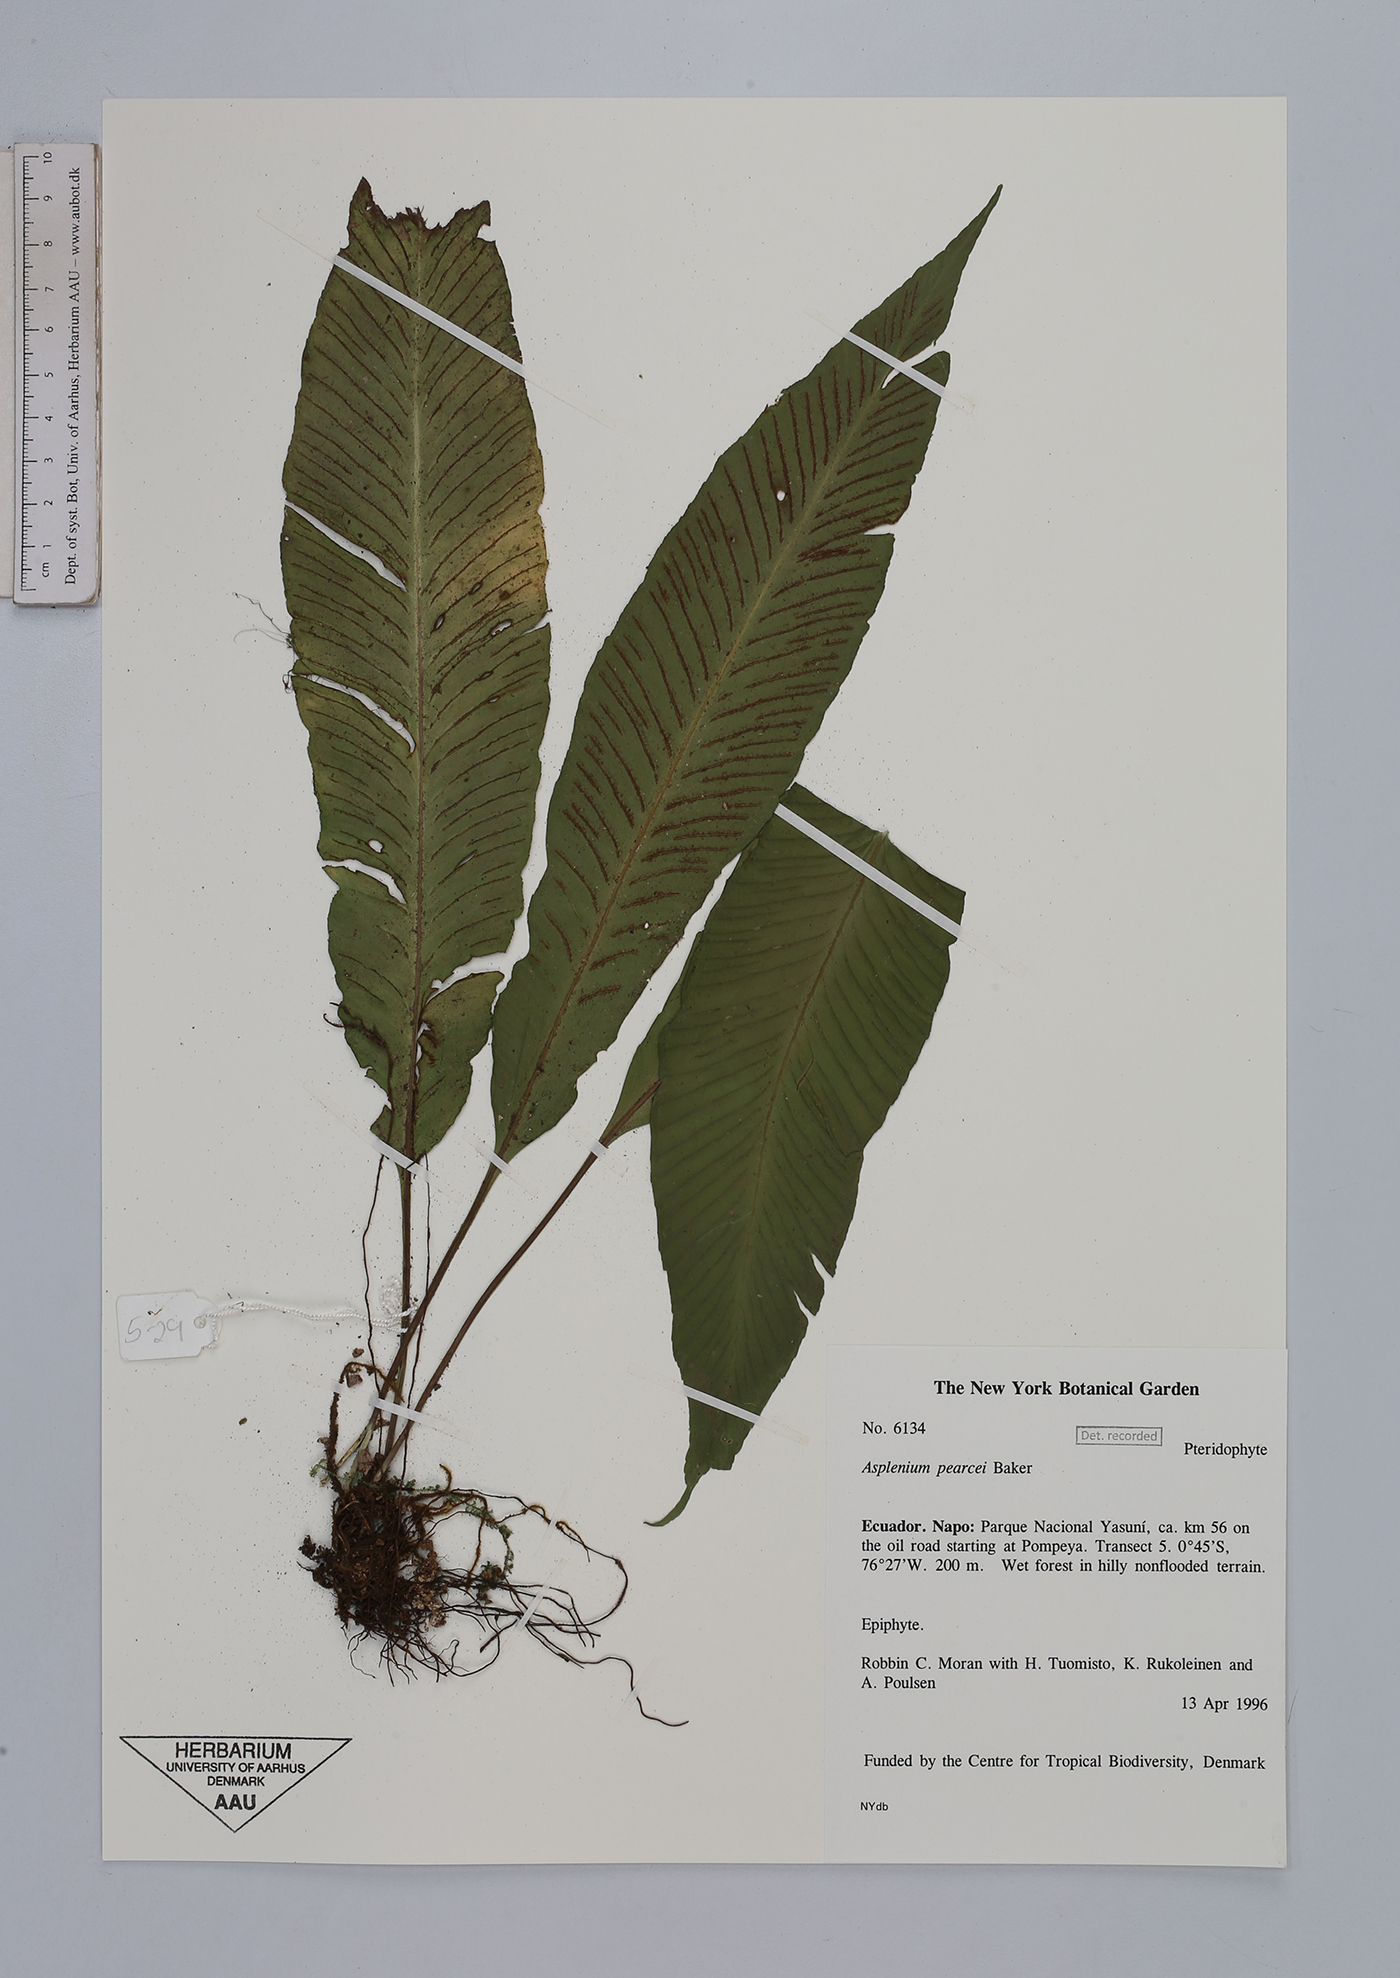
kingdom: Plantae
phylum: Tracheophyta
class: Polypodiopsida
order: Polypodiales
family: Aspleniaceae
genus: Asplenium
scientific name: Asplenium pearcei
